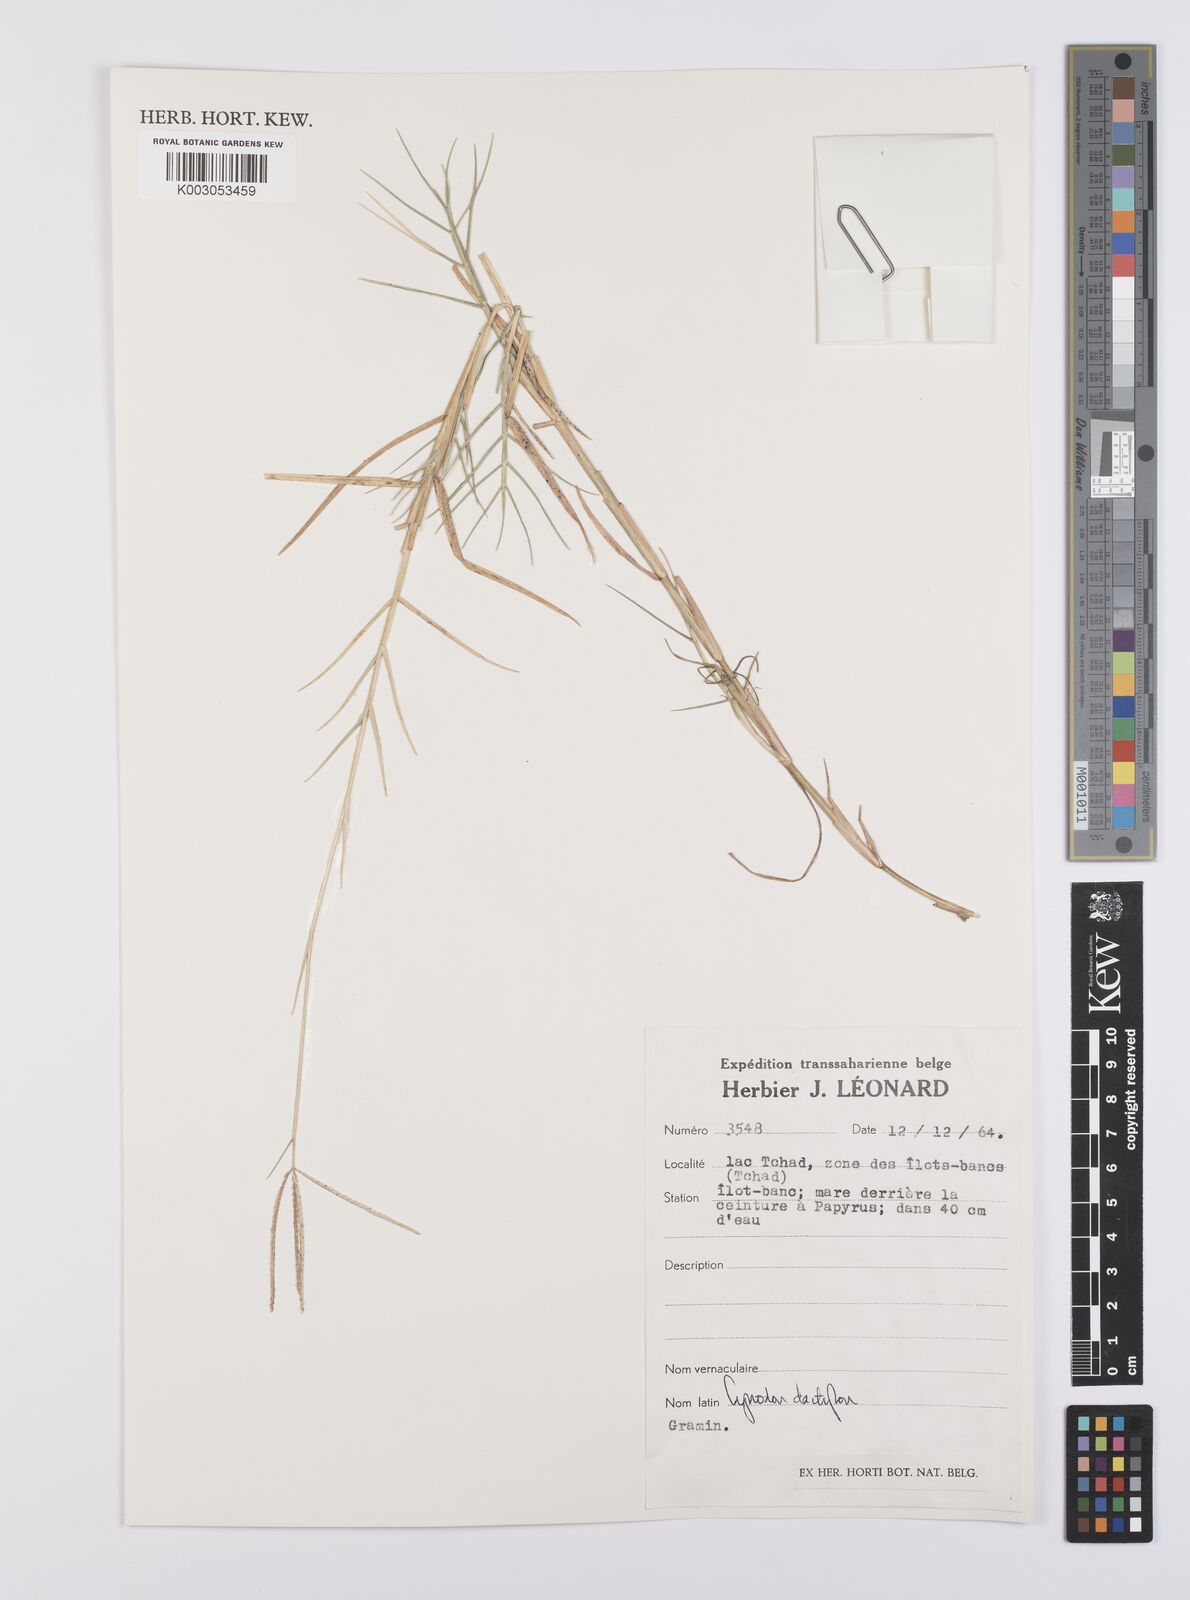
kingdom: Plantae
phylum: Tracheophyta
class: Liliopsida
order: Poales
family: Poaceae
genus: Cynodon
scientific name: Cynodon dactylon
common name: Bermuda grass
